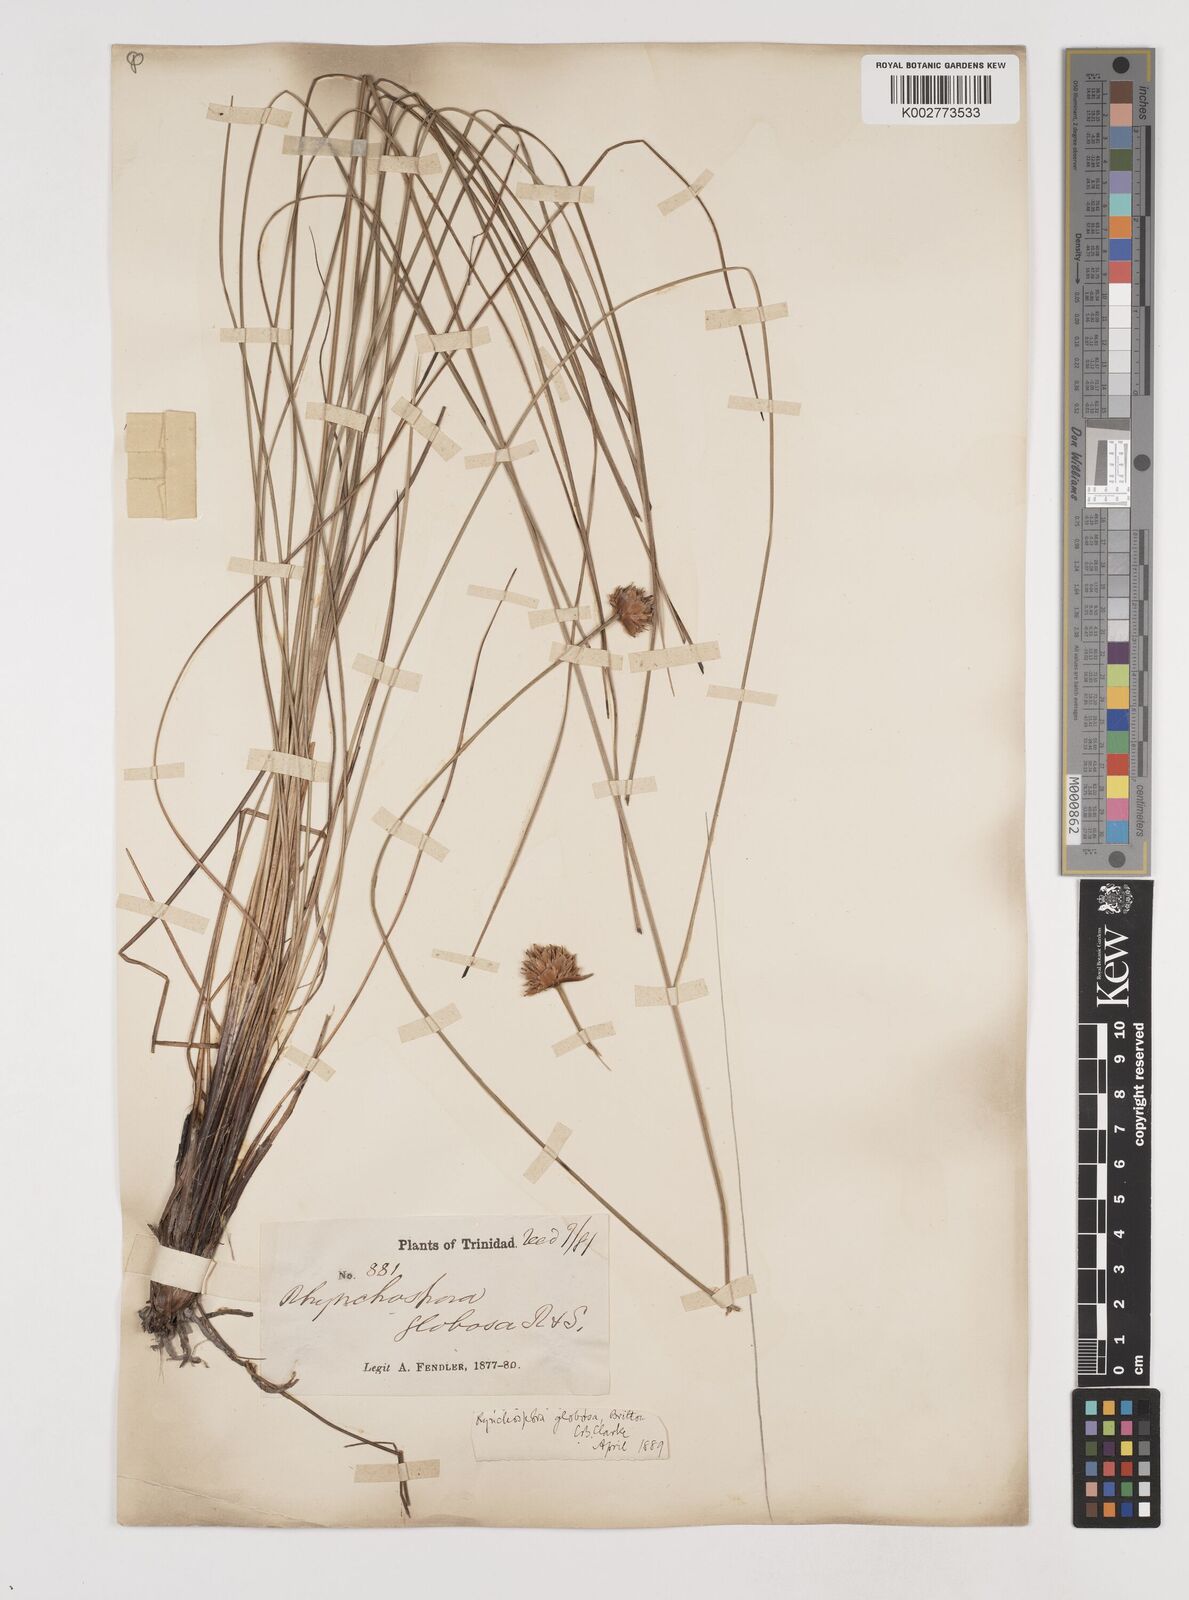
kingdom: Plantae
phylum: Tracheophyta
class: Liliopsida
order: Poales
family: Cyperaceae
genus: Rhynchospora
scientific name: Rhynchospora globosa
